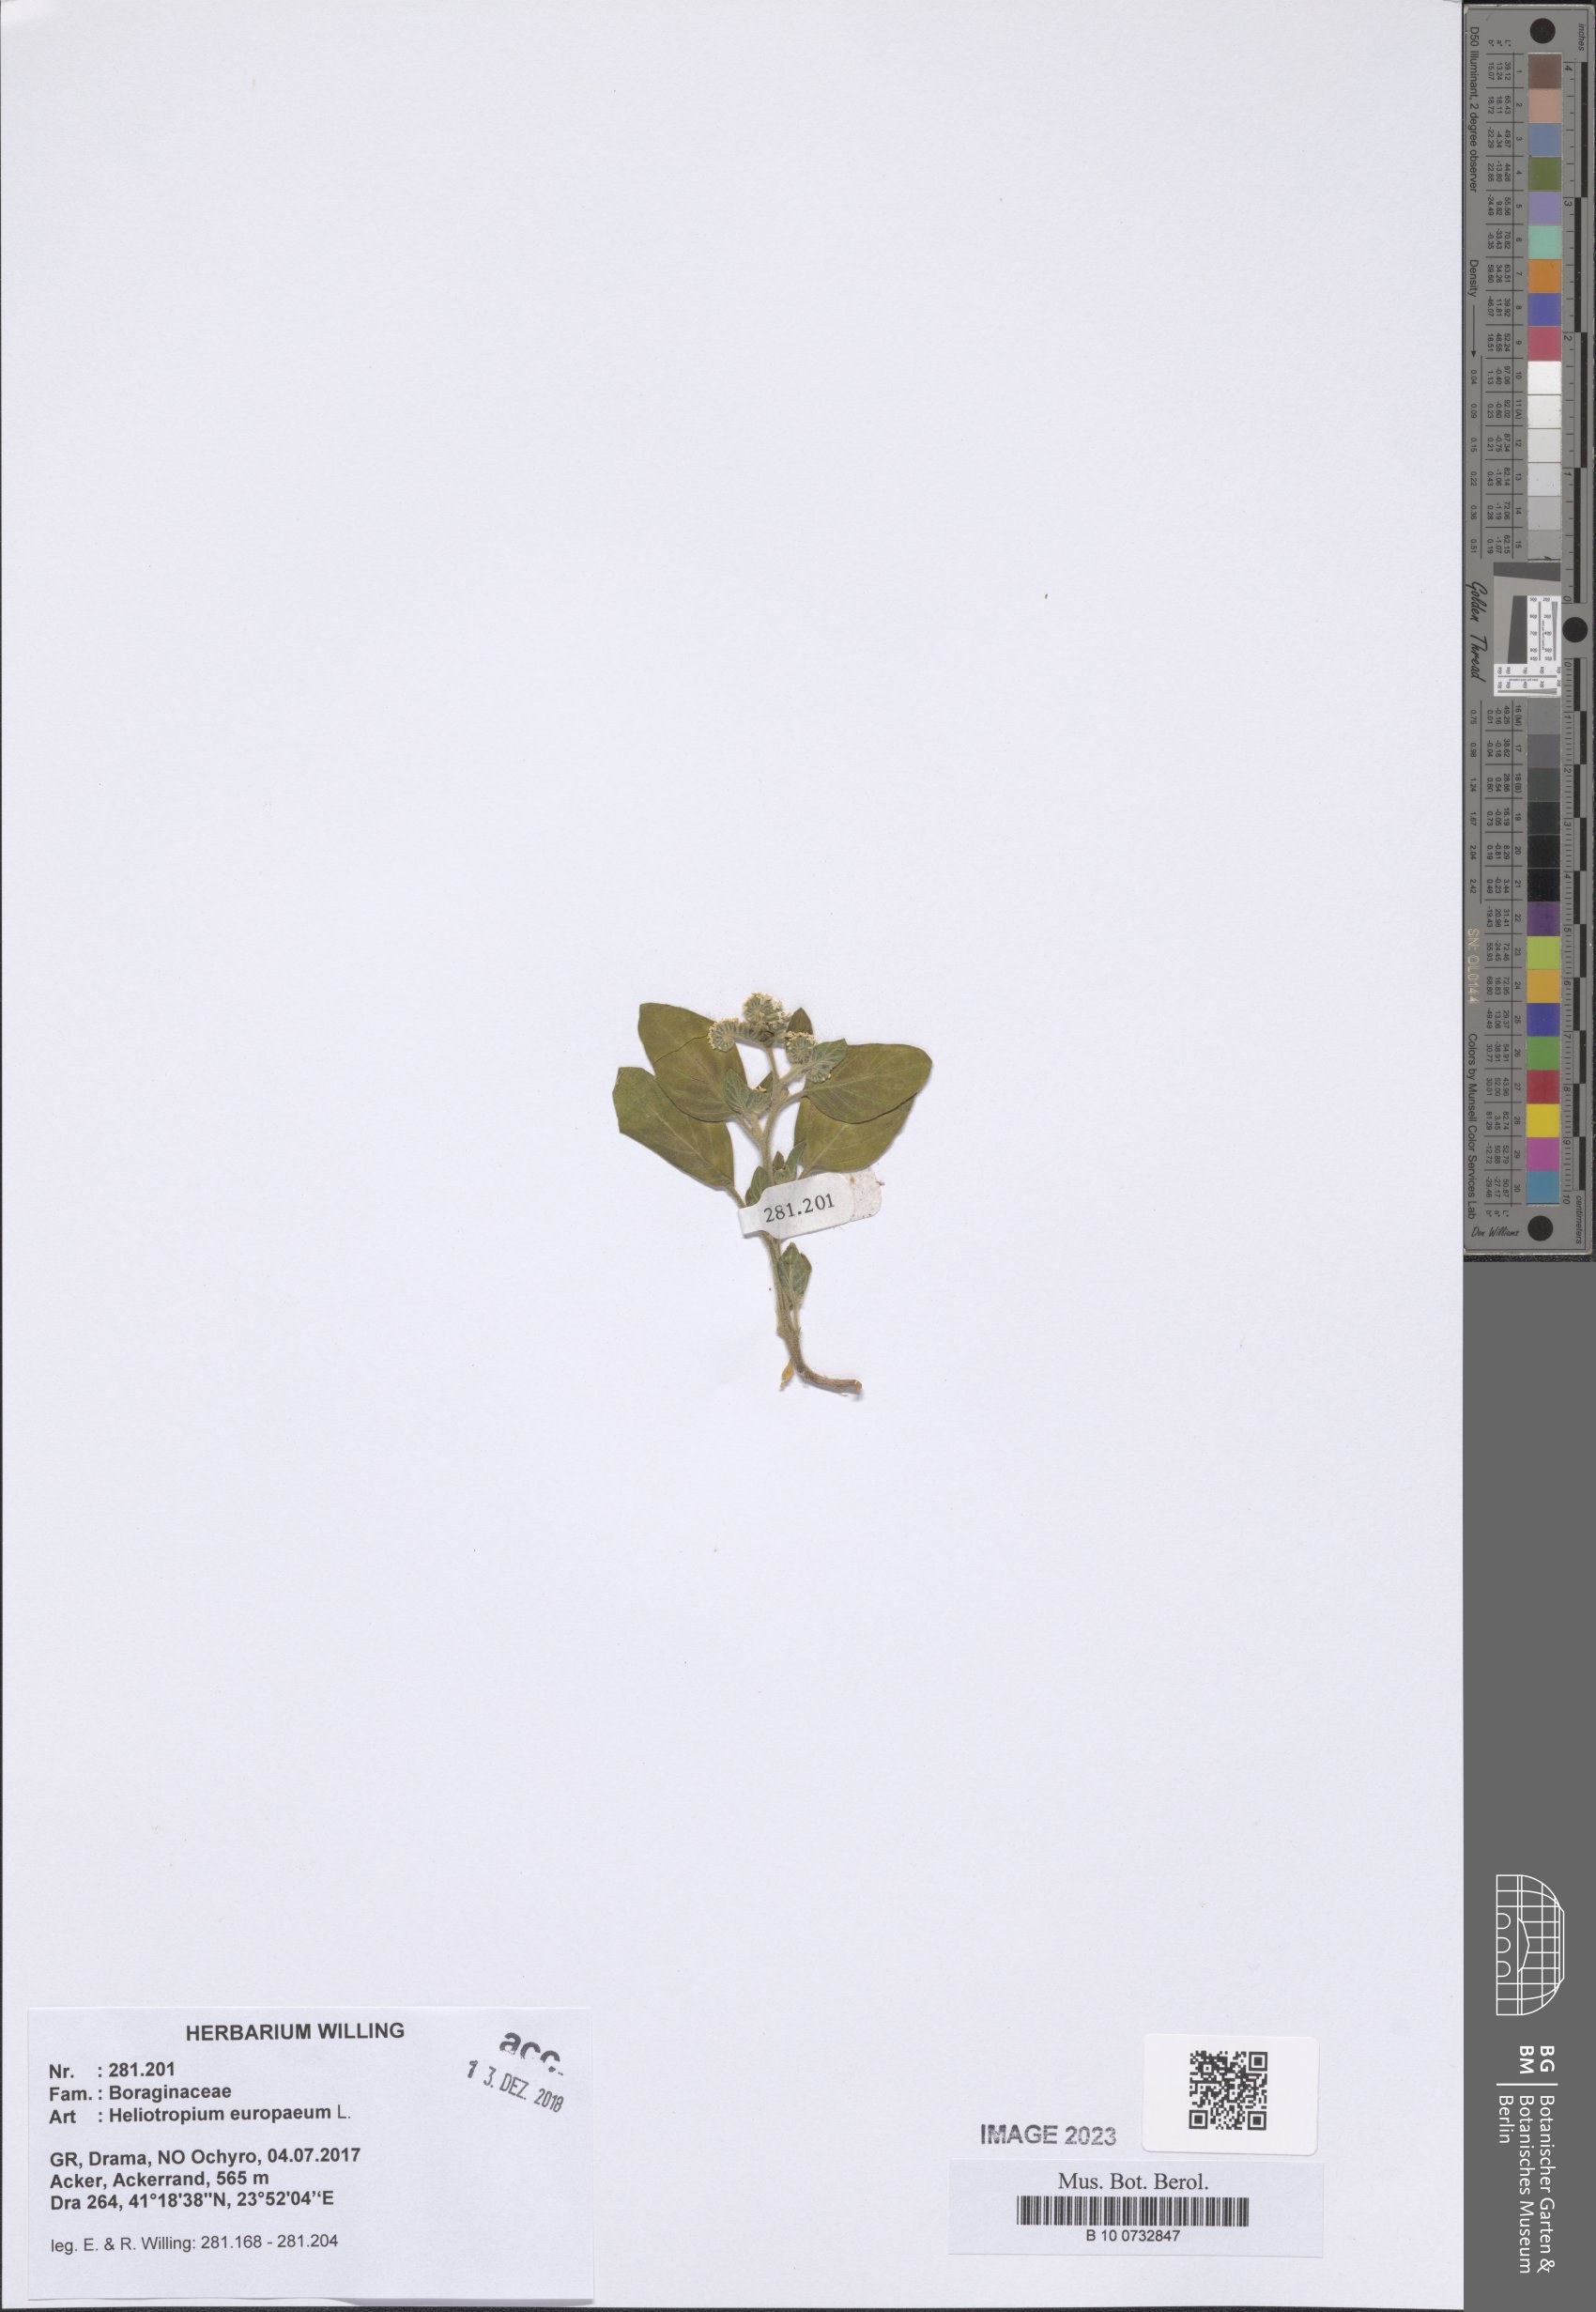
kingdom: Plantae
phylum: Tracheophyta
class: Magnoliopsida
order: Boraginales
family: Heliotropiaceae
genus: Heliotropium
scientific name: Heliotropium europaeum
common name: European heliotrope
